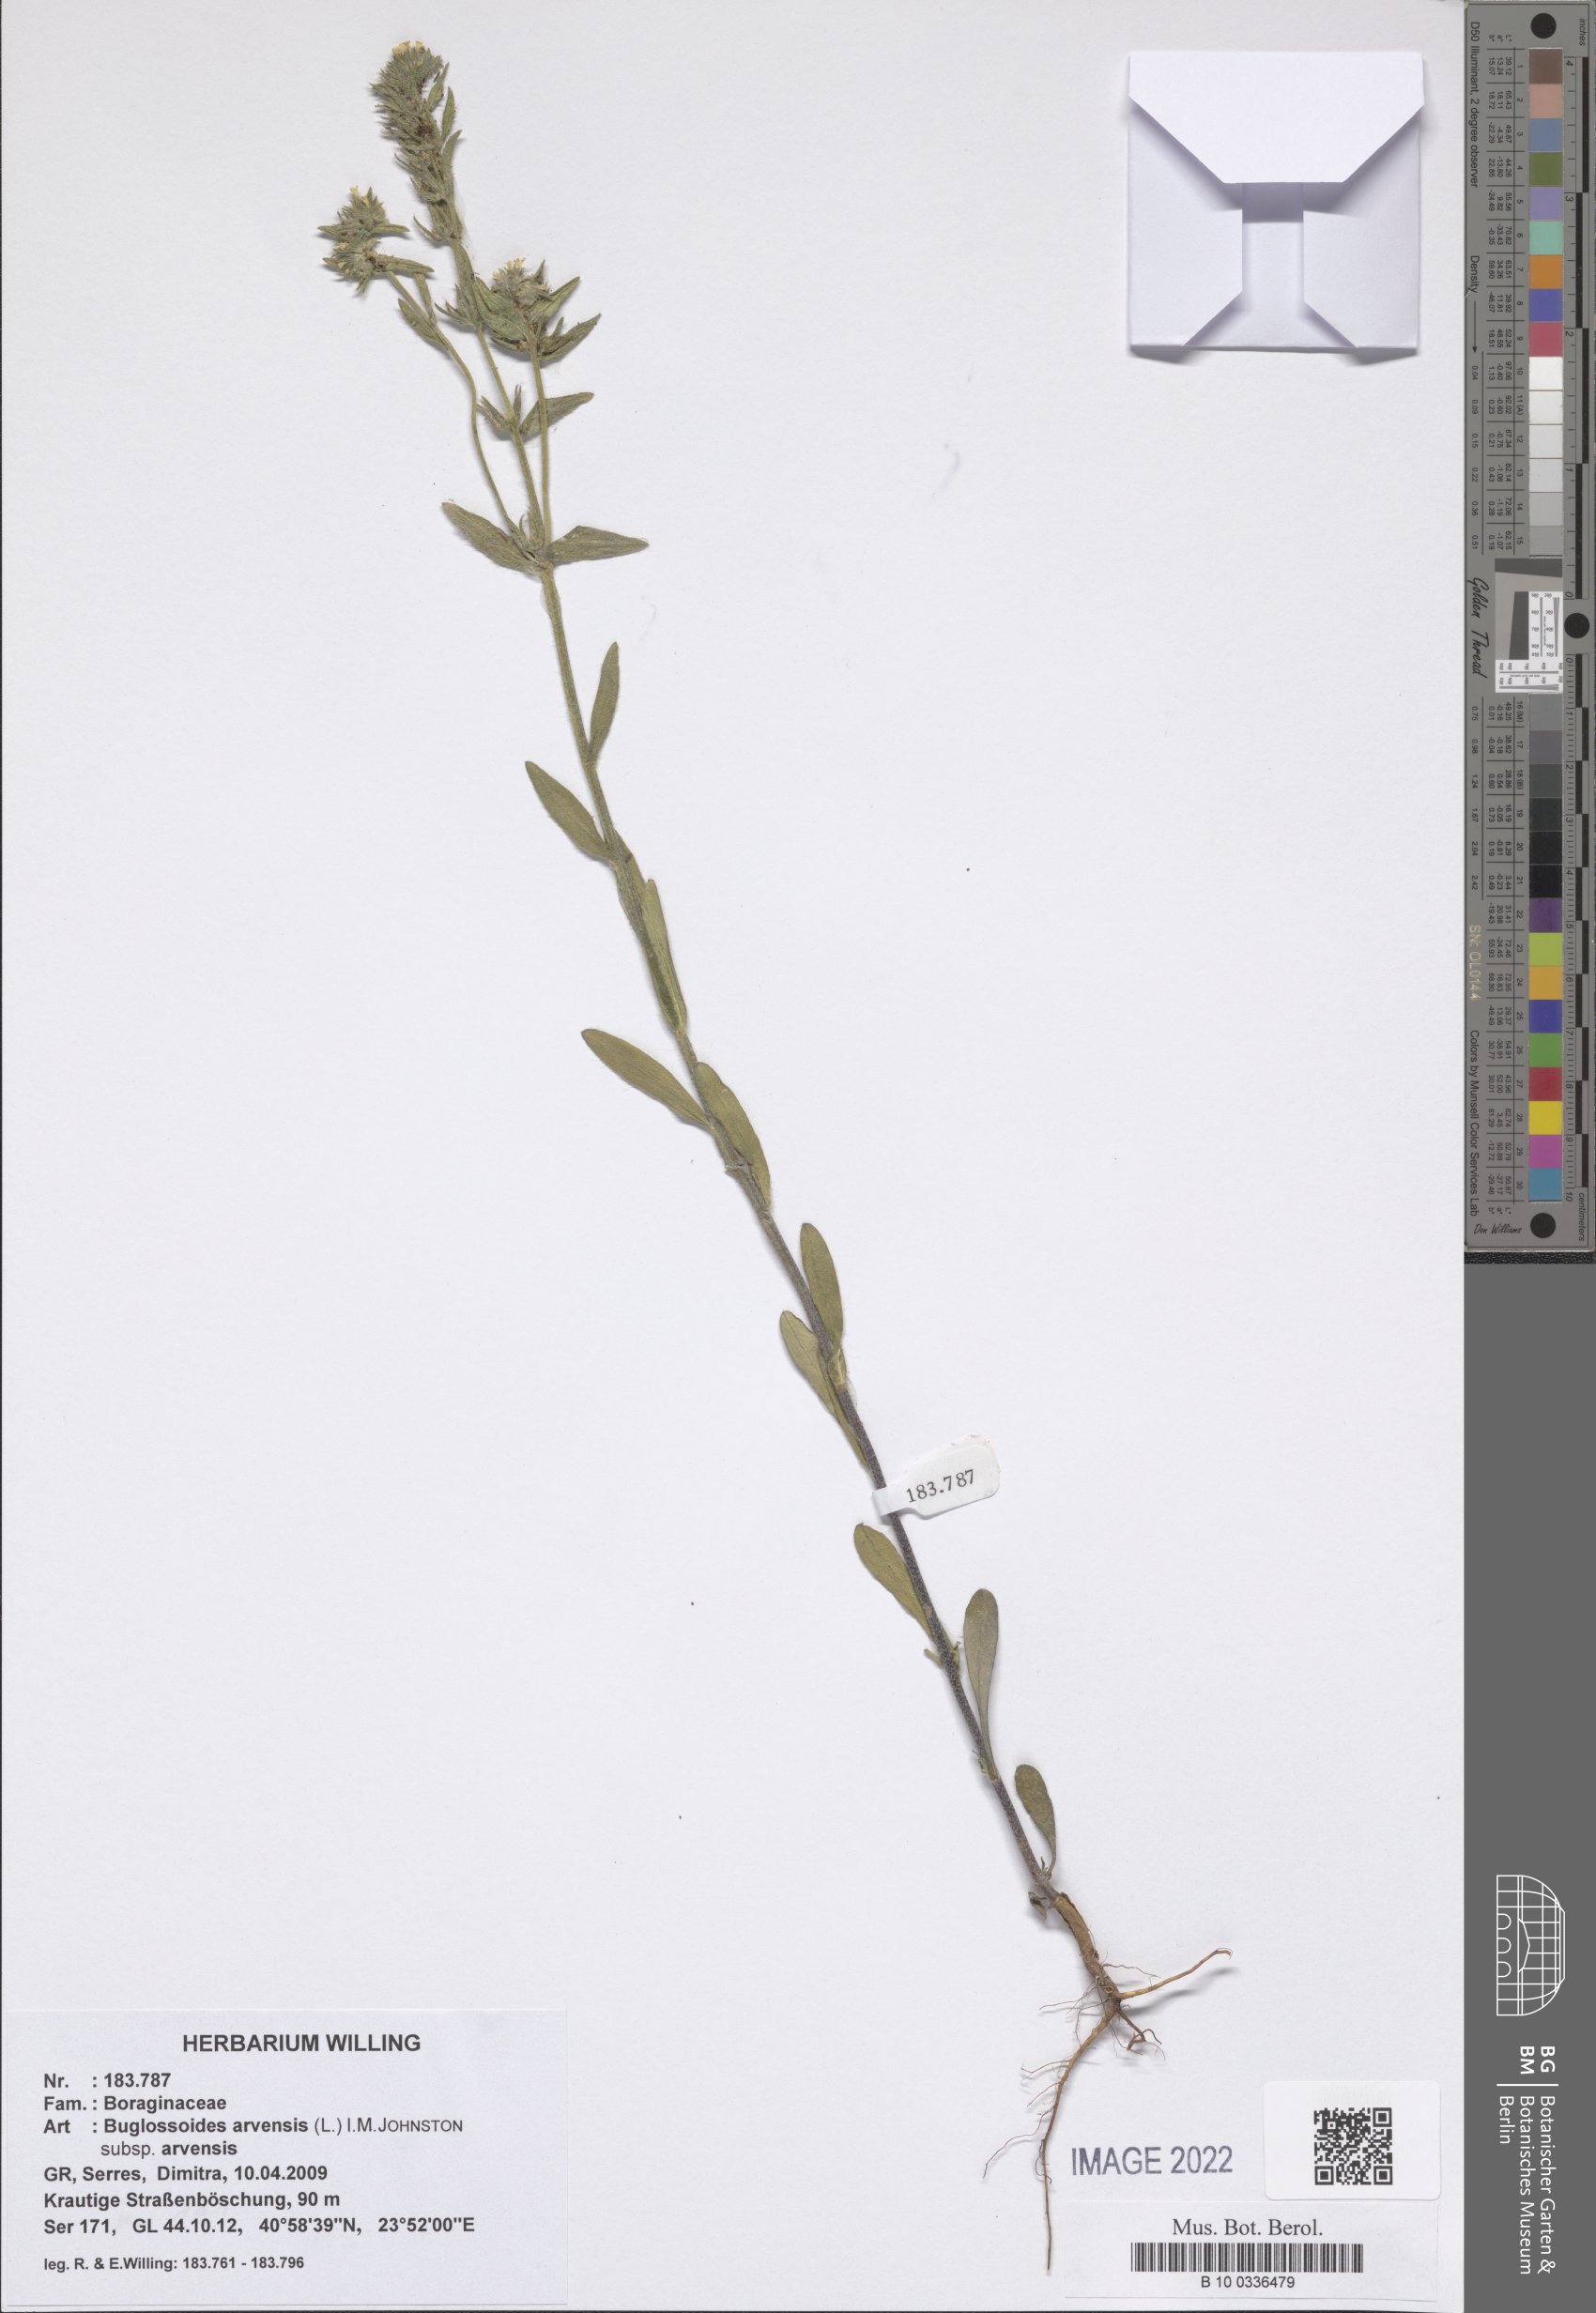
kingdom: Plantae
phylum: Tracheophyta
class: Magnoliopsida
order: Boraginales
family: Boraginaceae
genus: Buglossoides
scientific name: Buglossoides arvensis
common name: Corn gromwell
